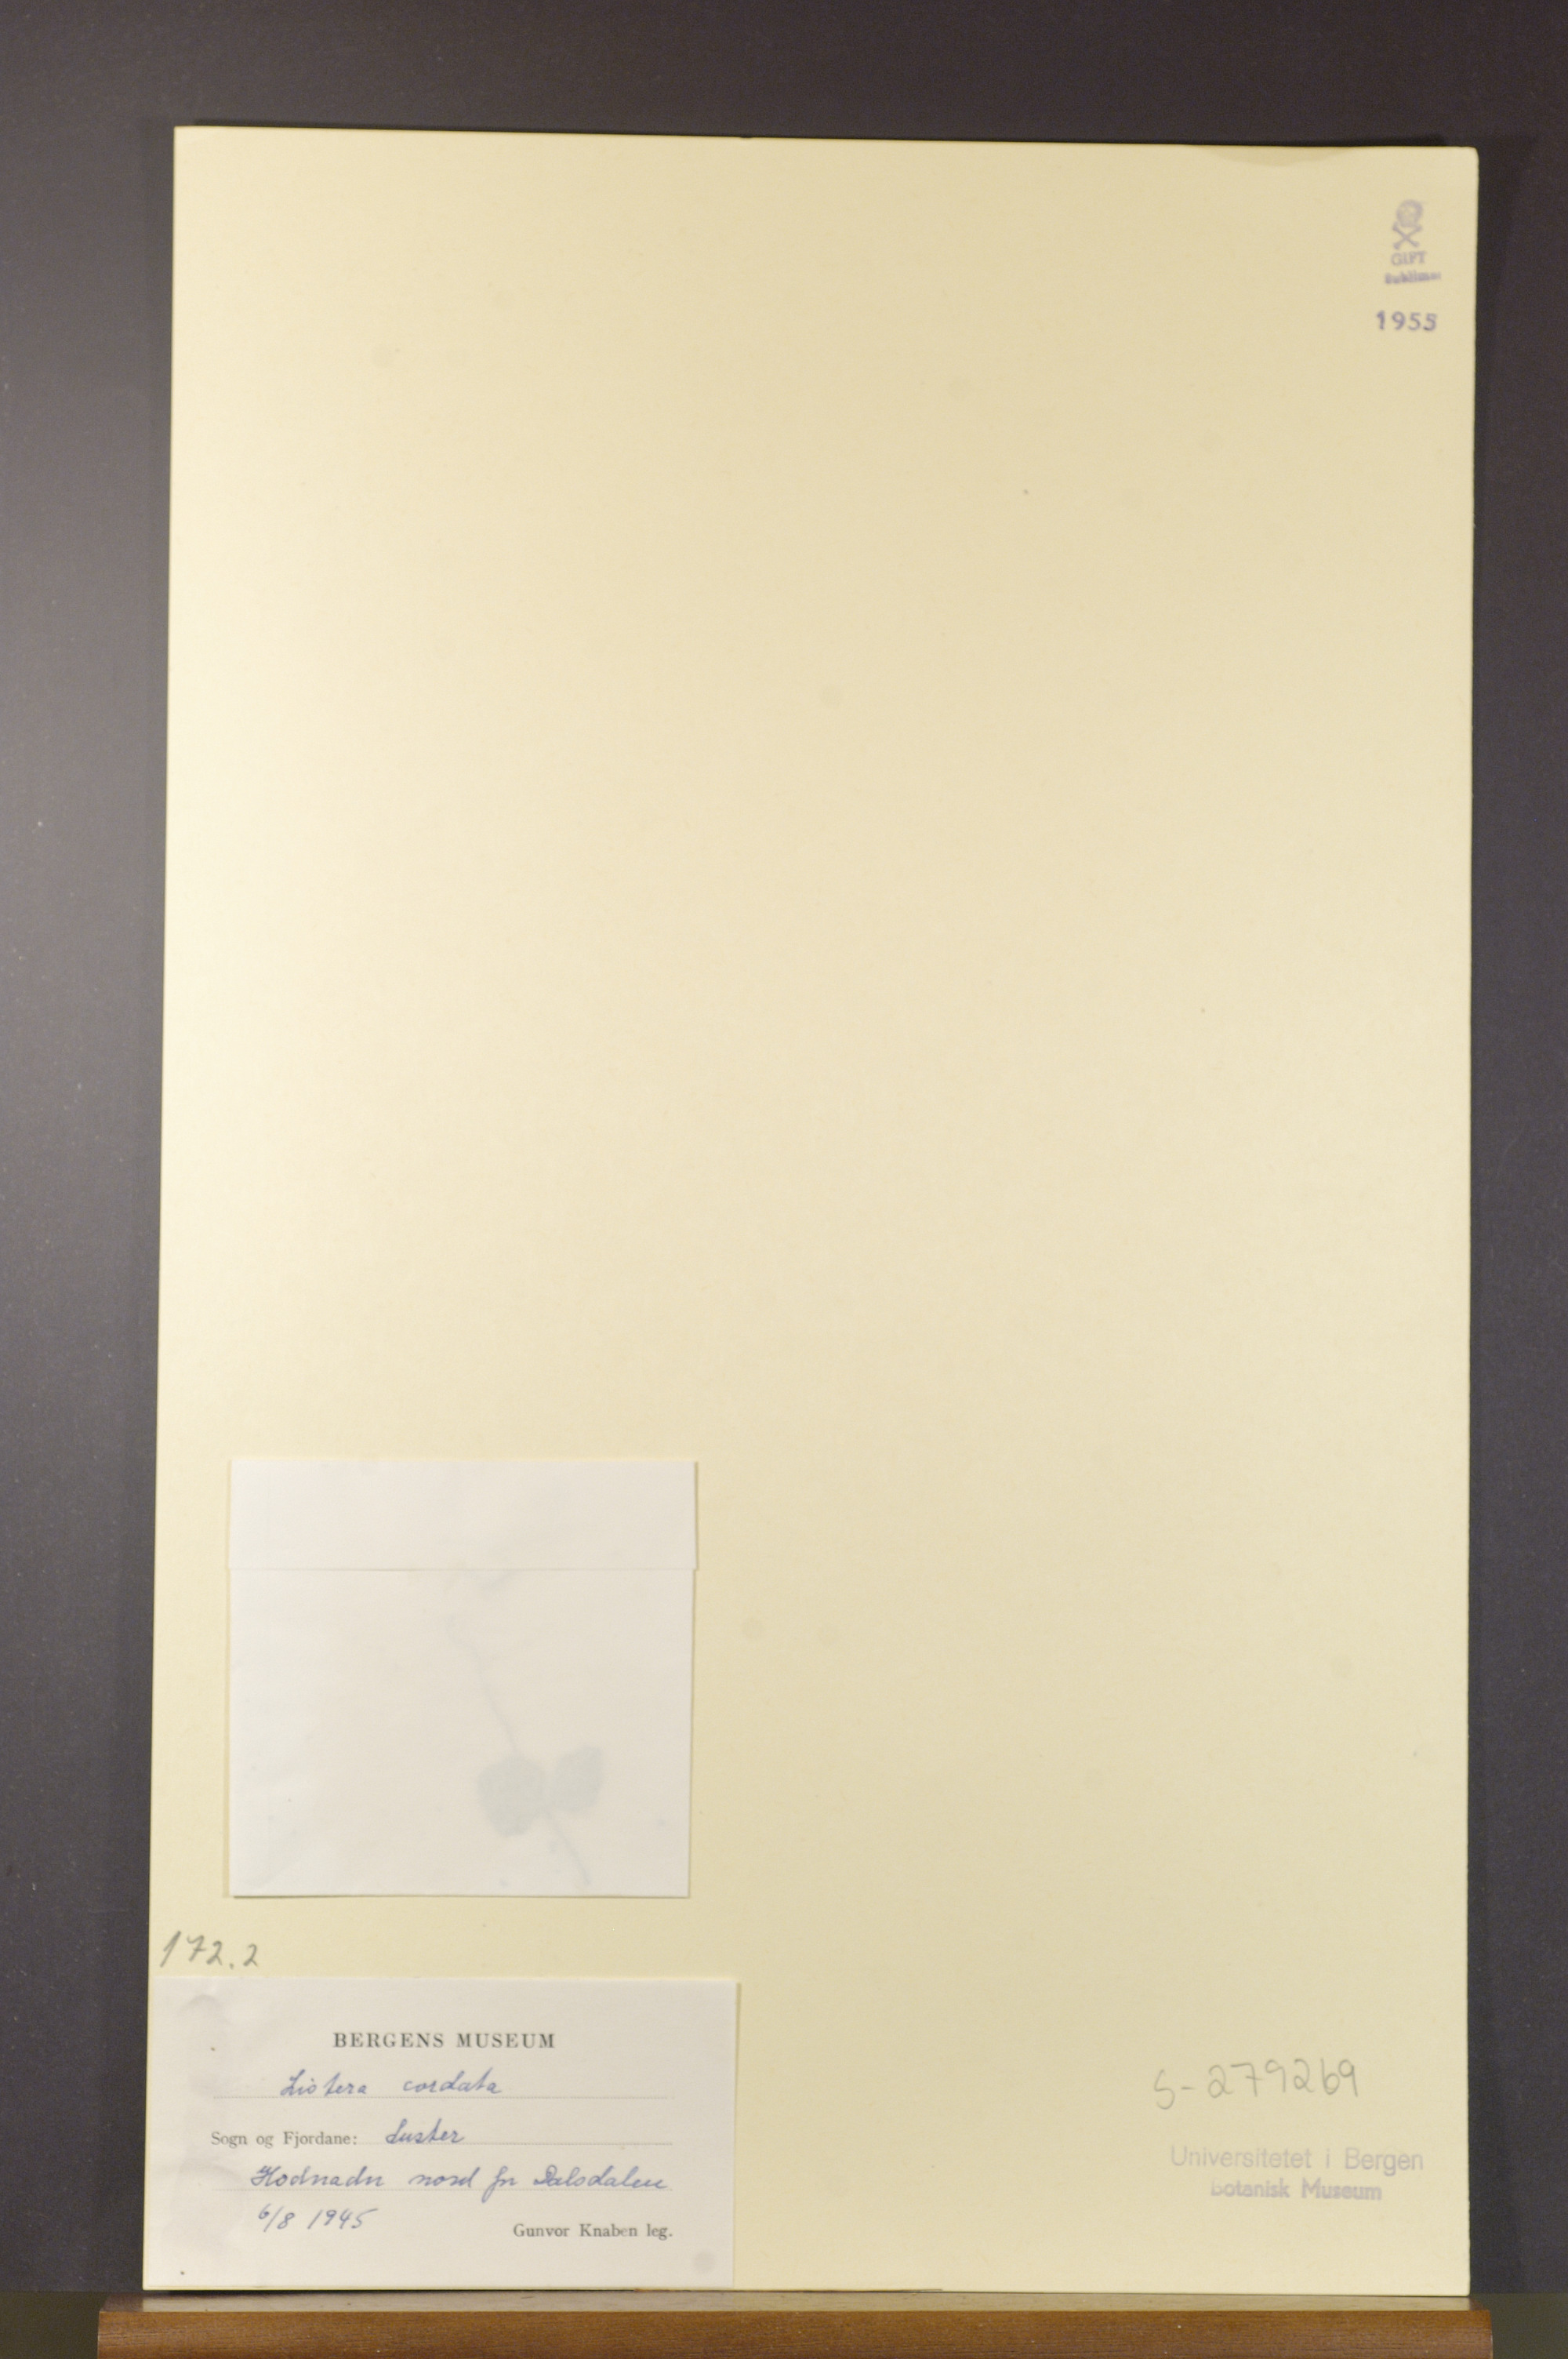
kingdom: Plantae
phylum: Tracheophyta
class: Liliopsida
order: Asparagales
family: Orchidaceae
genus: Neottia
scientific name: Neottia cordata
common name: Lesser twayblade
